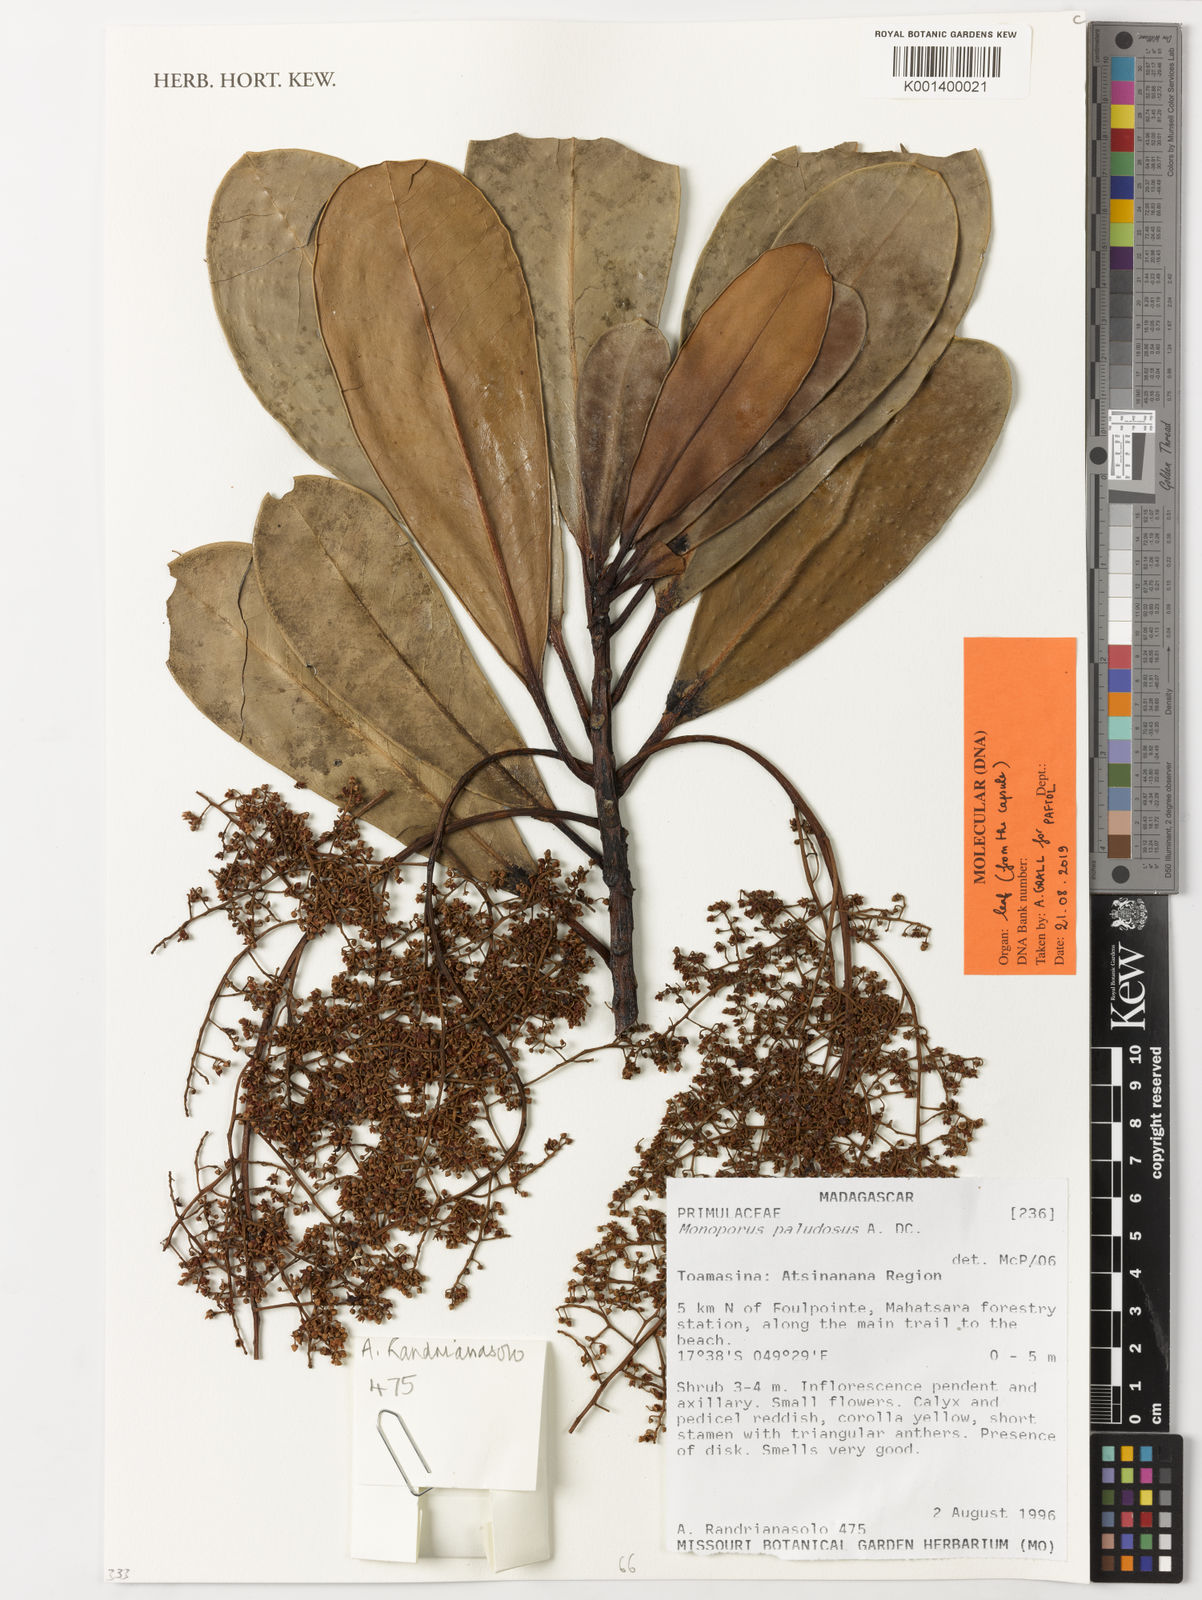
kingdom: Plantae
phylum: Tracheophyta
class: Magnoliopsida
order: Ericales
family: Primulaceae
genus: Monoporus
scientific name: Monoporus paludosus
